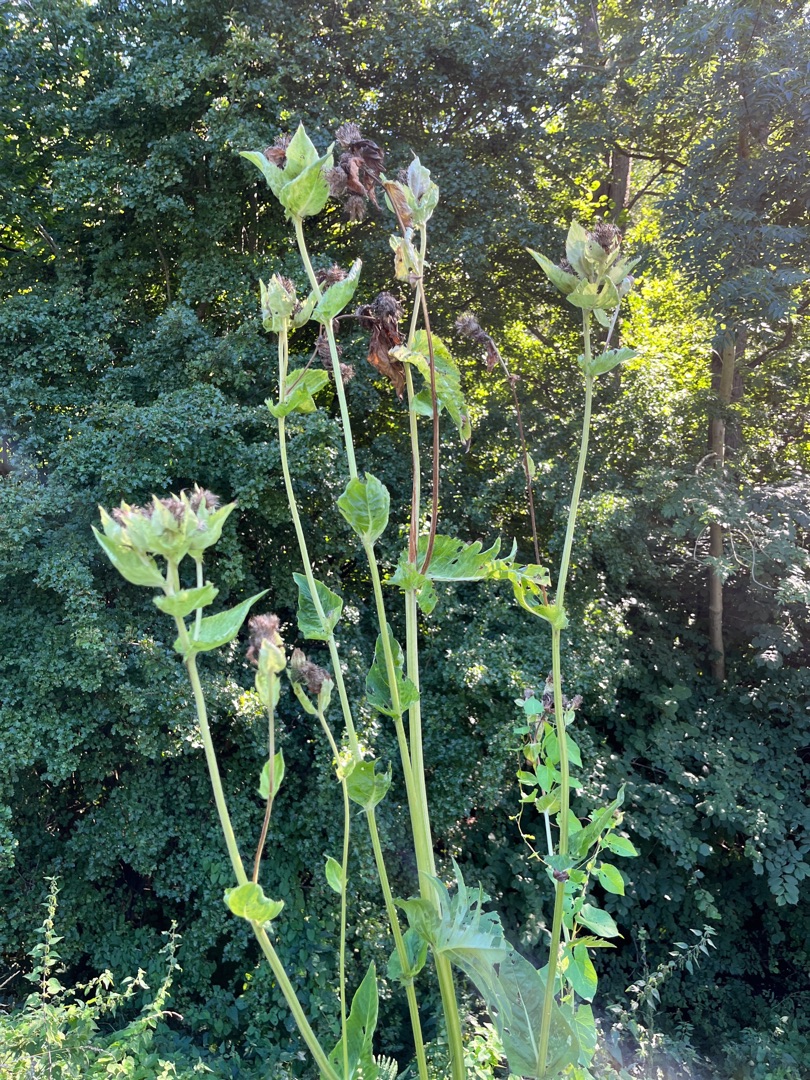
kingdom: Plantae
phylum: Tracheophyta
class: Magnoliopsida
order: Asterales
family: Asteraceae
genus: Cirsium
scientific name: Cirsium oleraceum
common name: Kål-tidsel
